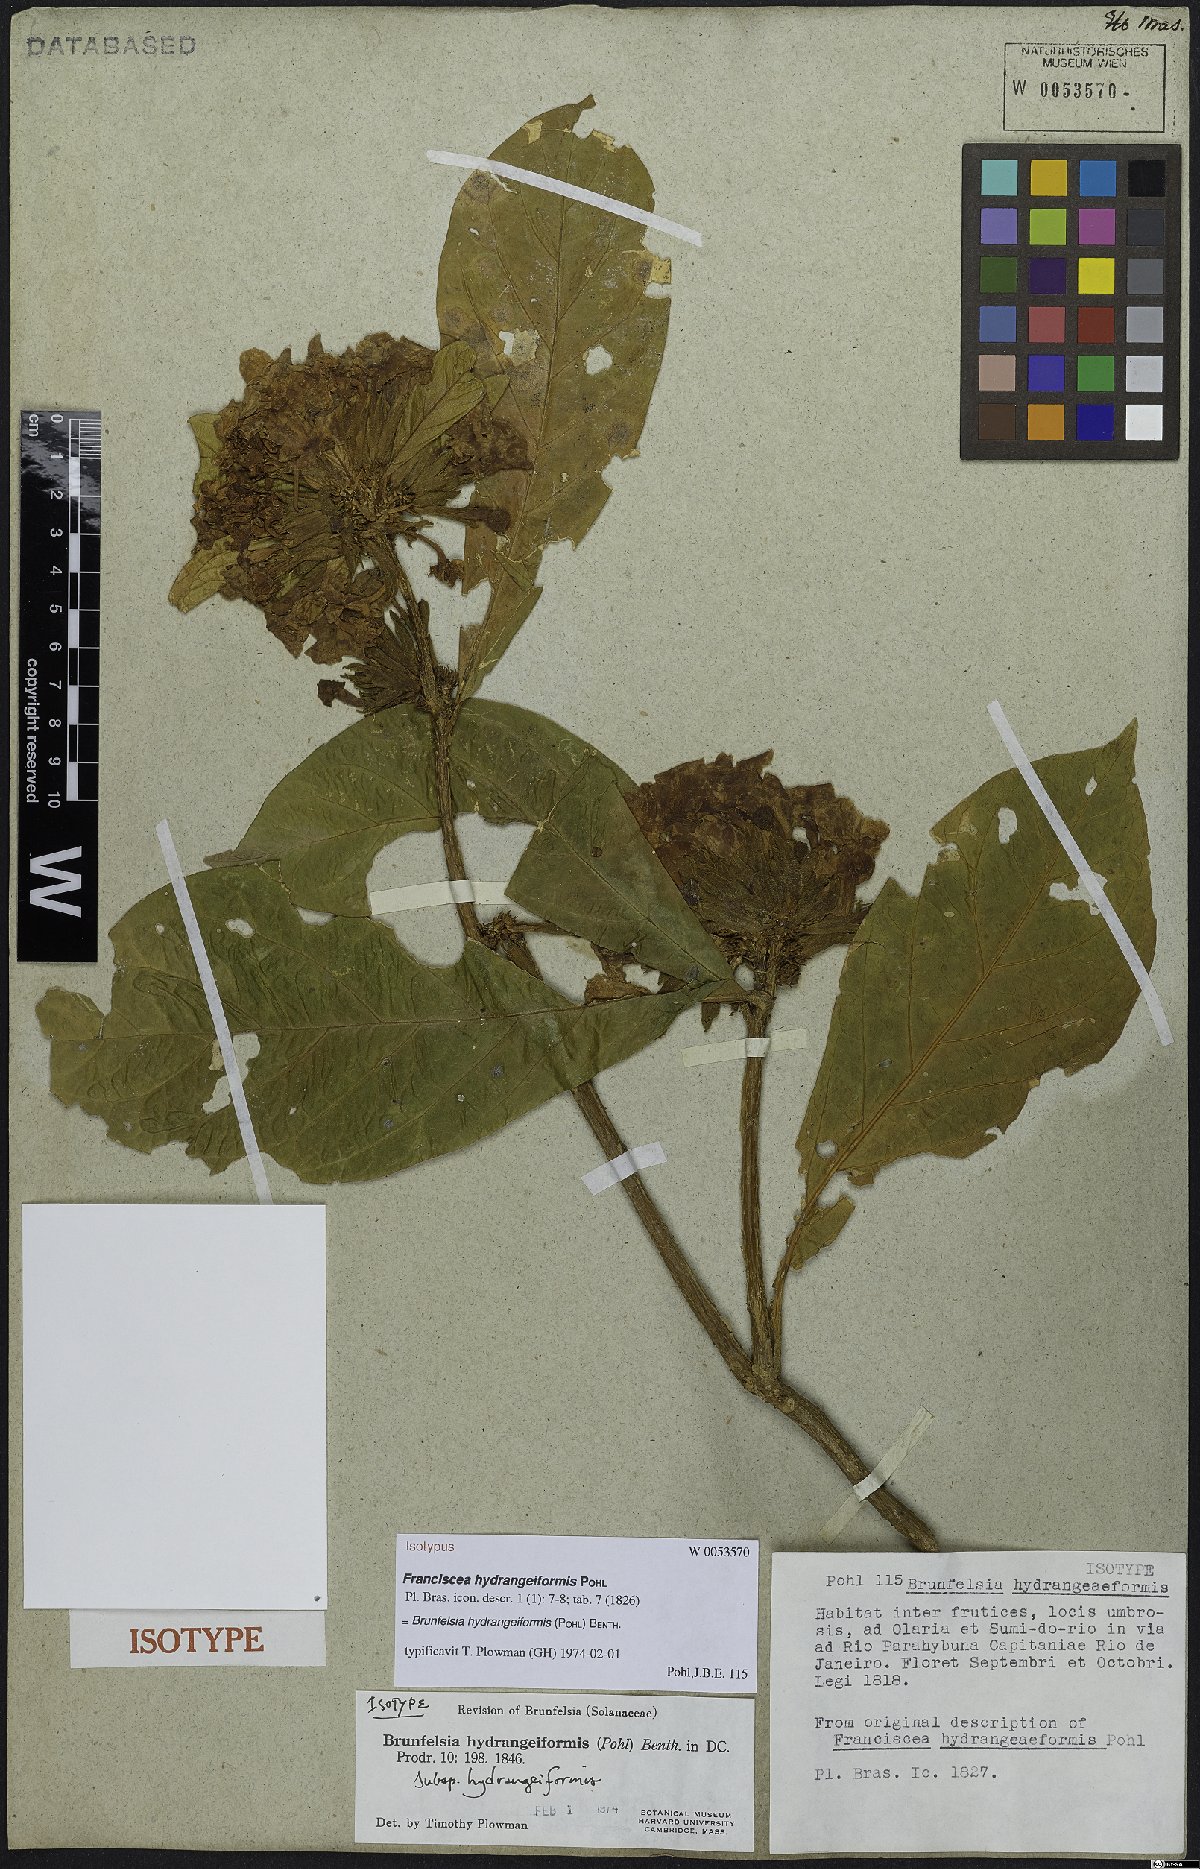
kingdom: Plantae
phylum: Tracheophyta
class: Magnoliopsida
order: Solanales
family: Solanaceae
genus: Brunfelsia
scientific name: Brunfelsia hydrangeiformis
